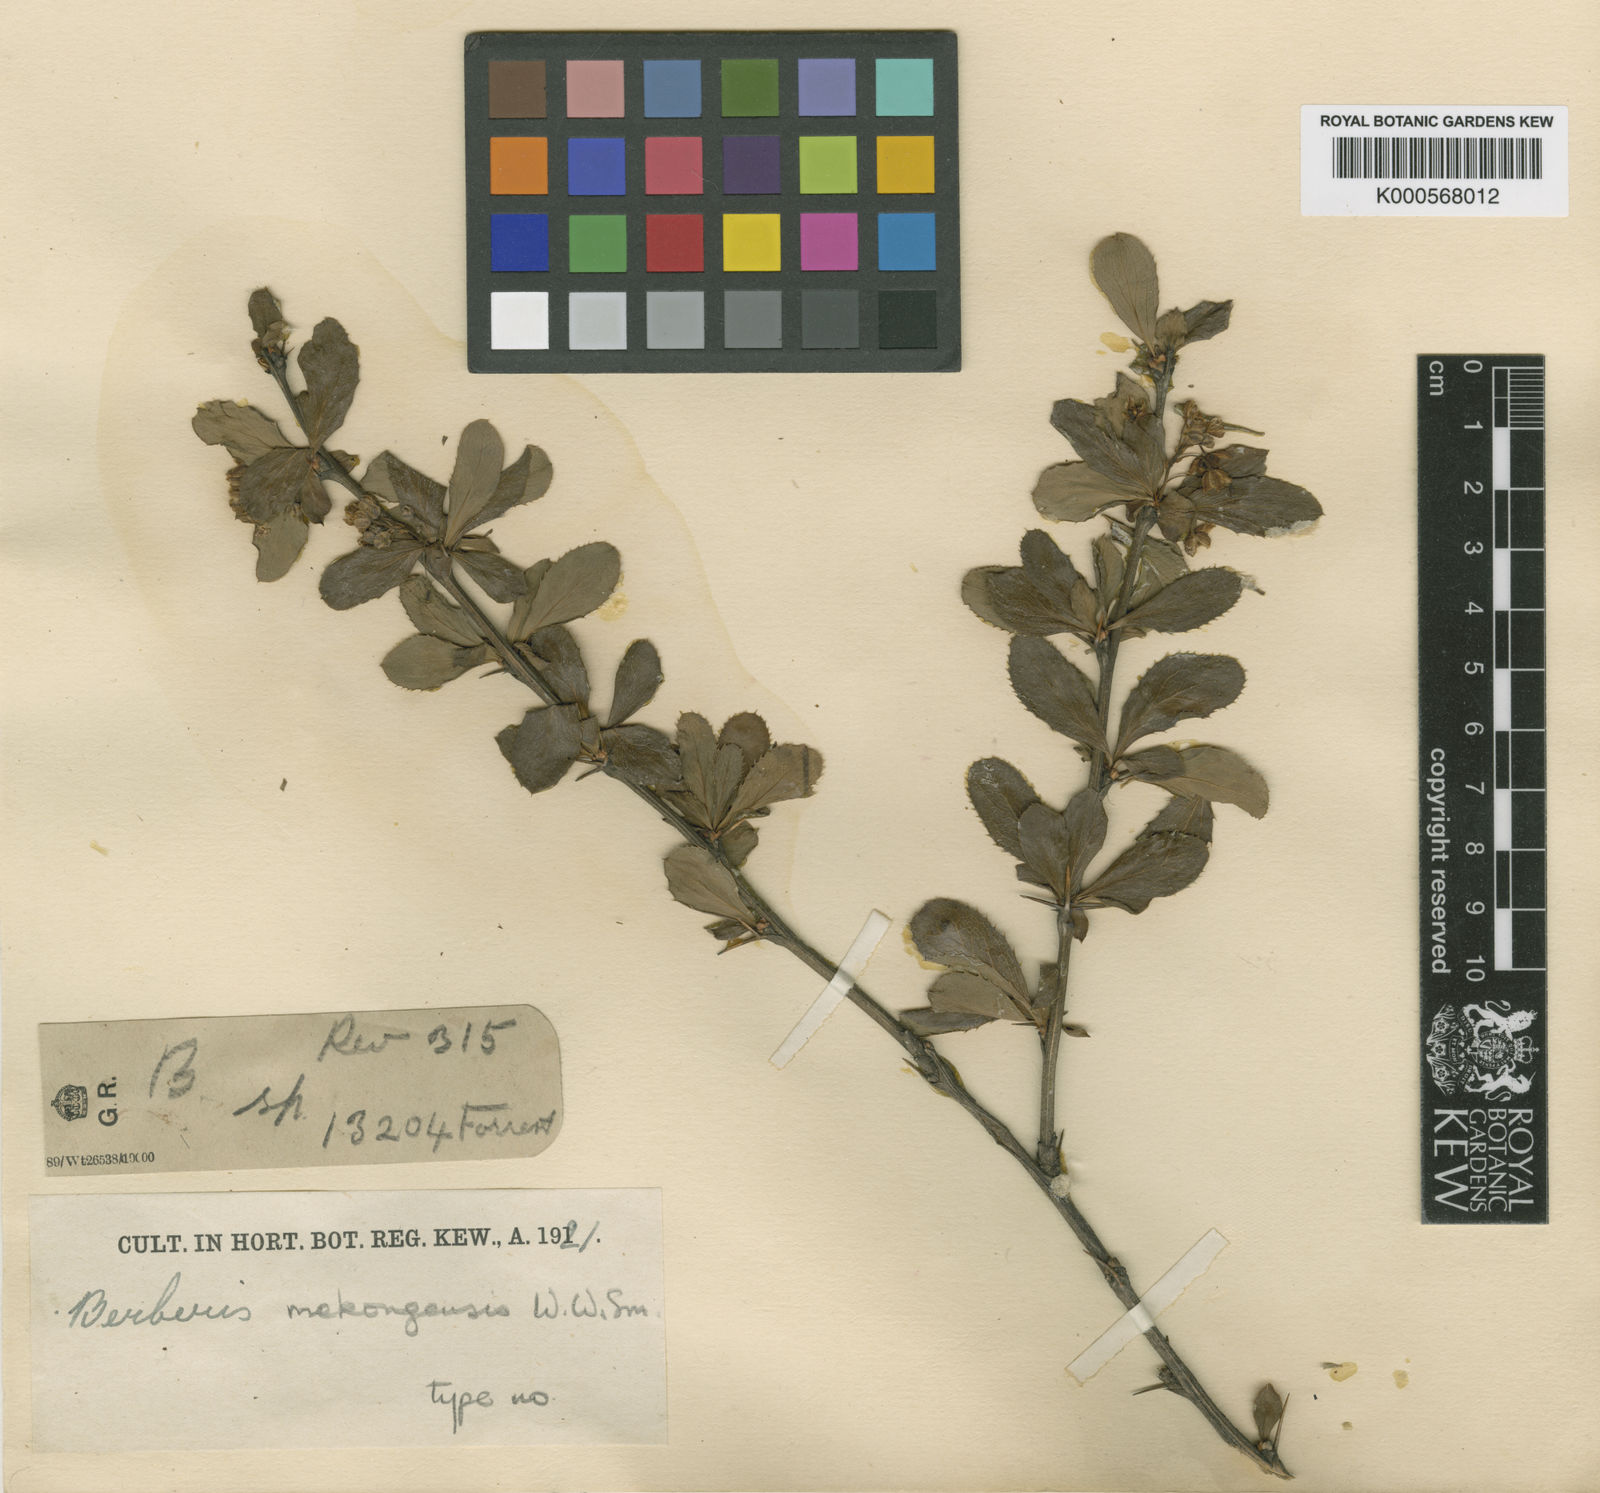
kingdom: Plantae
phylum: Tracheophyta
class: Magnoliopsida
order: Ranunculales
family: Berberidaceae
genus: Berberis
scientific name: Berberis mekongensis
